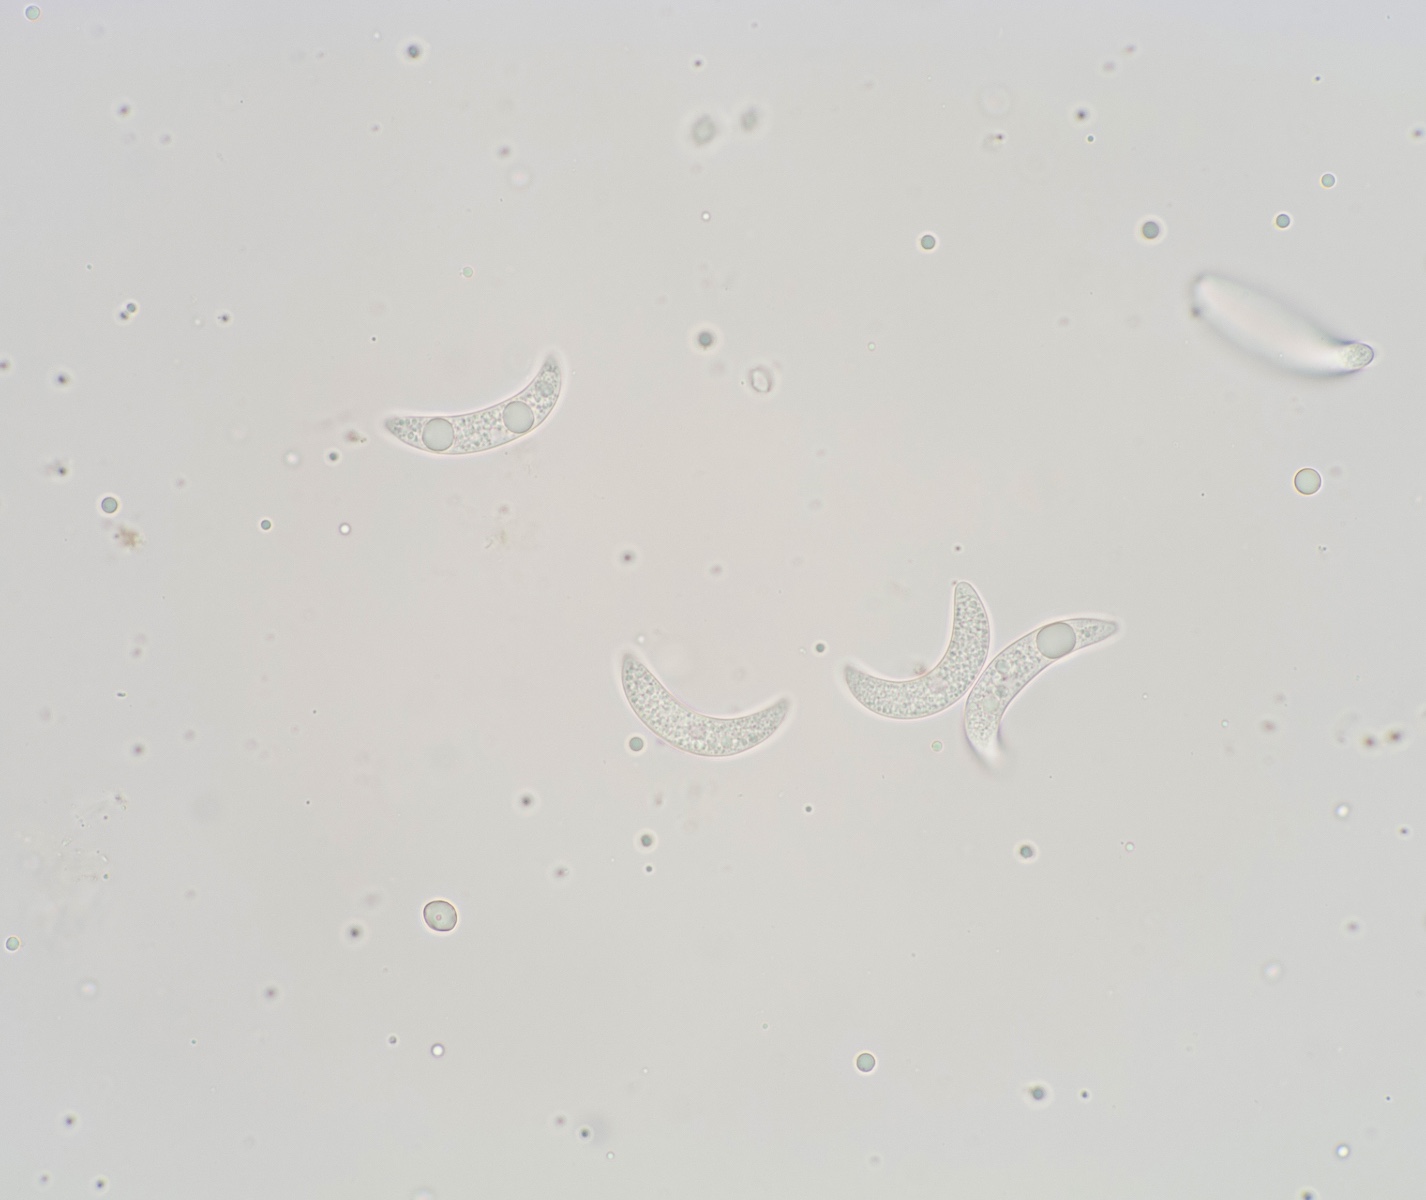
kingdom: Fungi
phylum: Ascomycota
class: Leotiomycetes
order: Helotiales
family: Dermateaceae
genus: Dermea
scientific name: Dermea tulasnei
